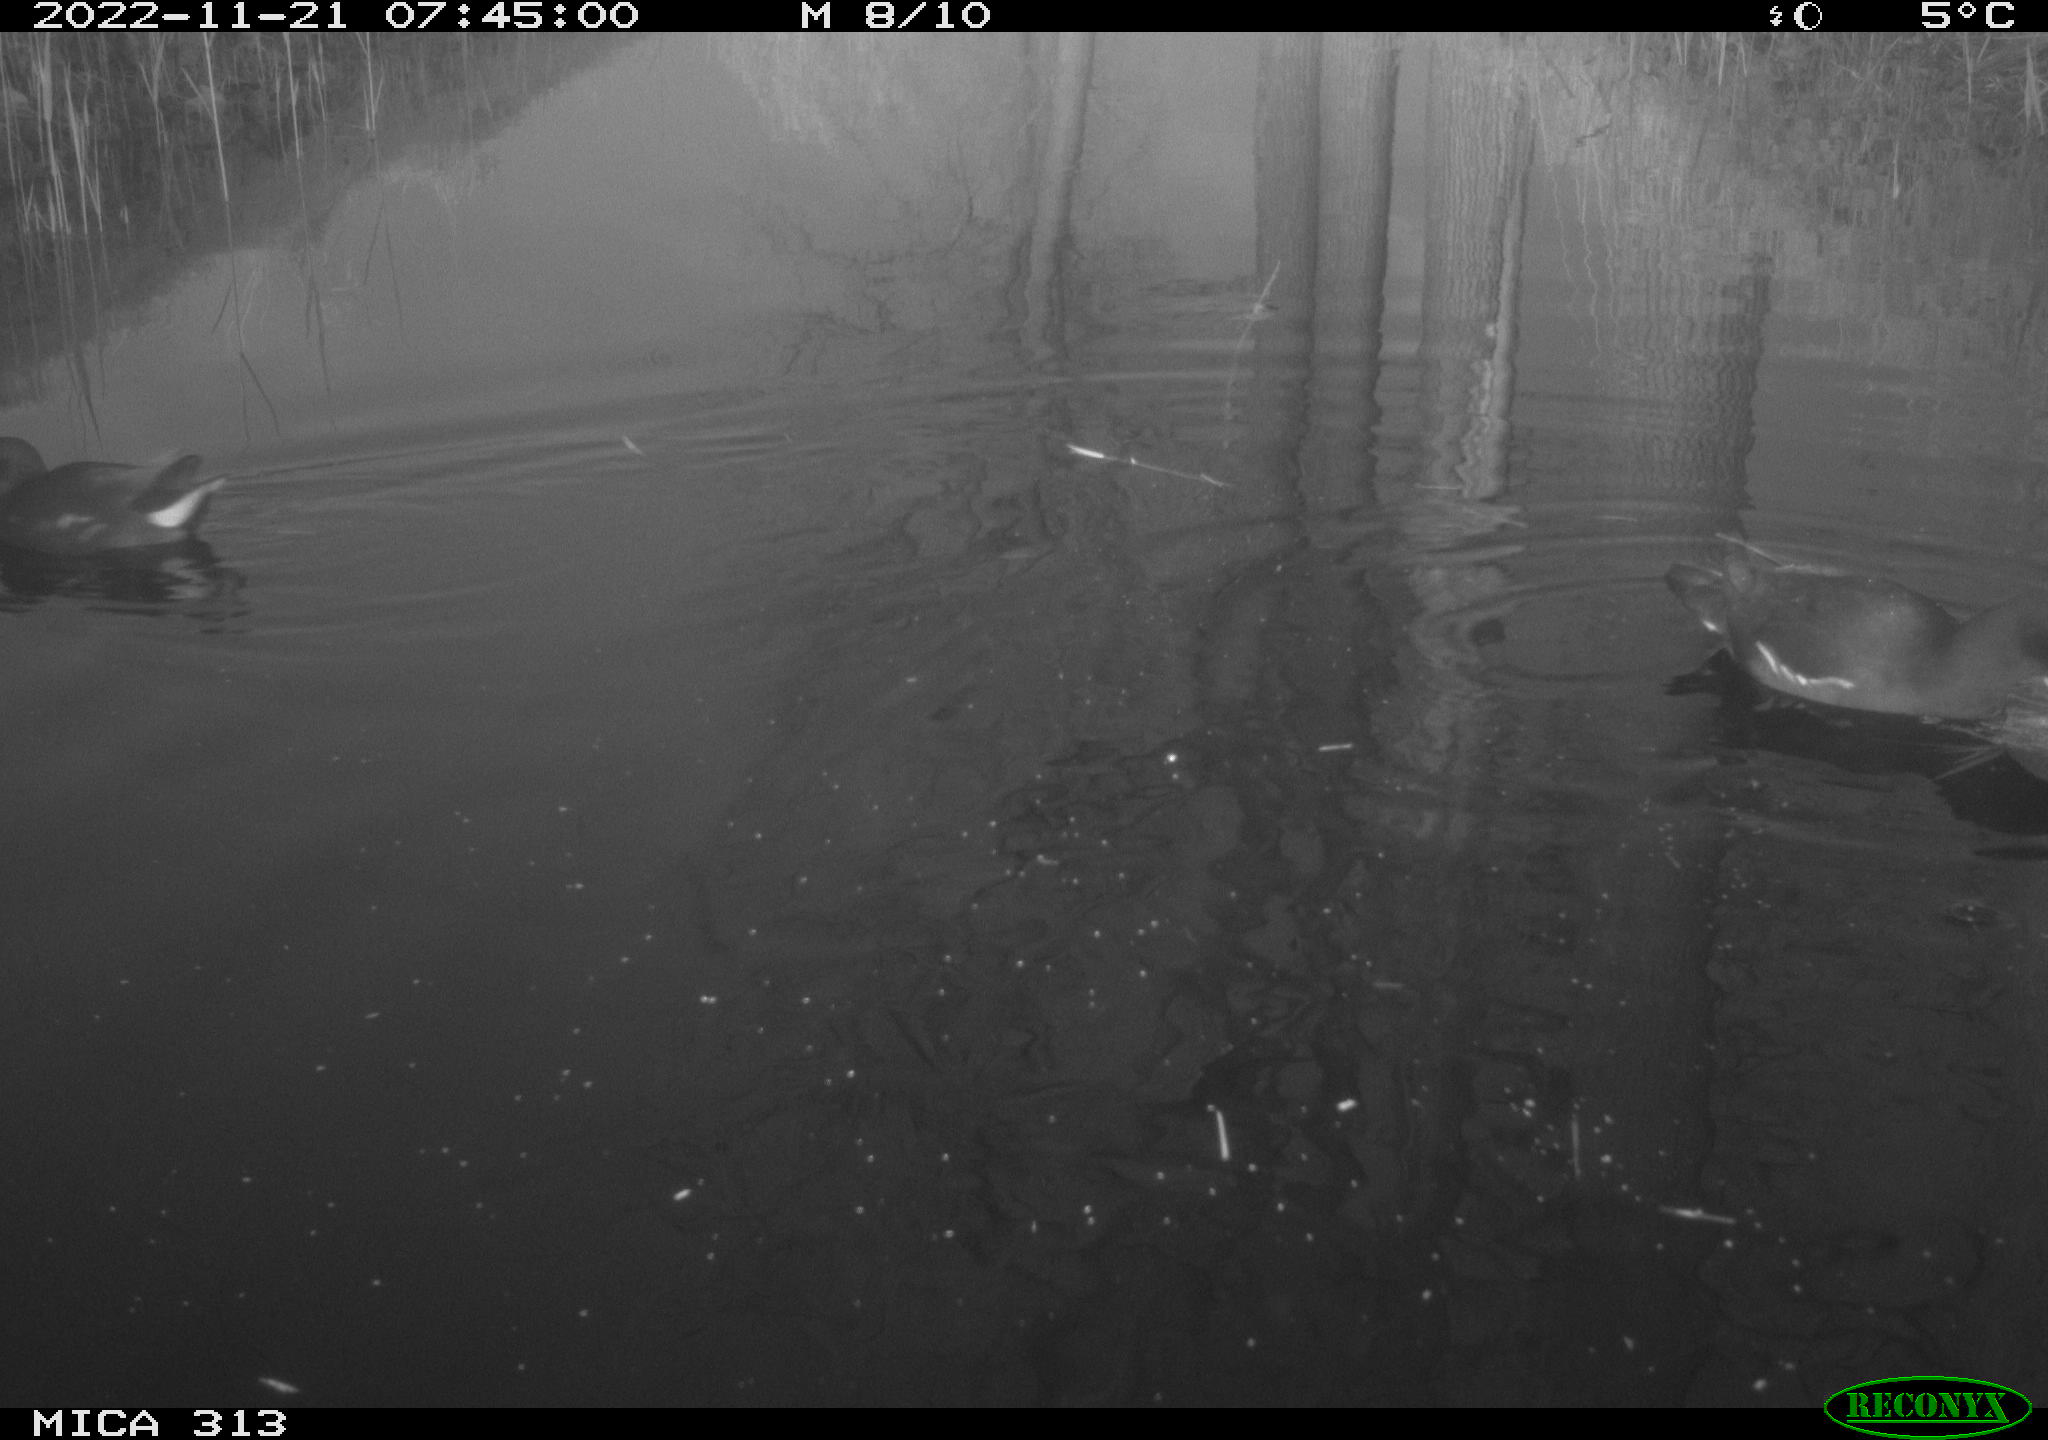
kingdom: Animalia
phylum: Chordata
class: Aves
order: Gruiformes
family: Rallidae
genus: Gallinula
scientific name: Gallinula chloropus
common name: Common moorhen
